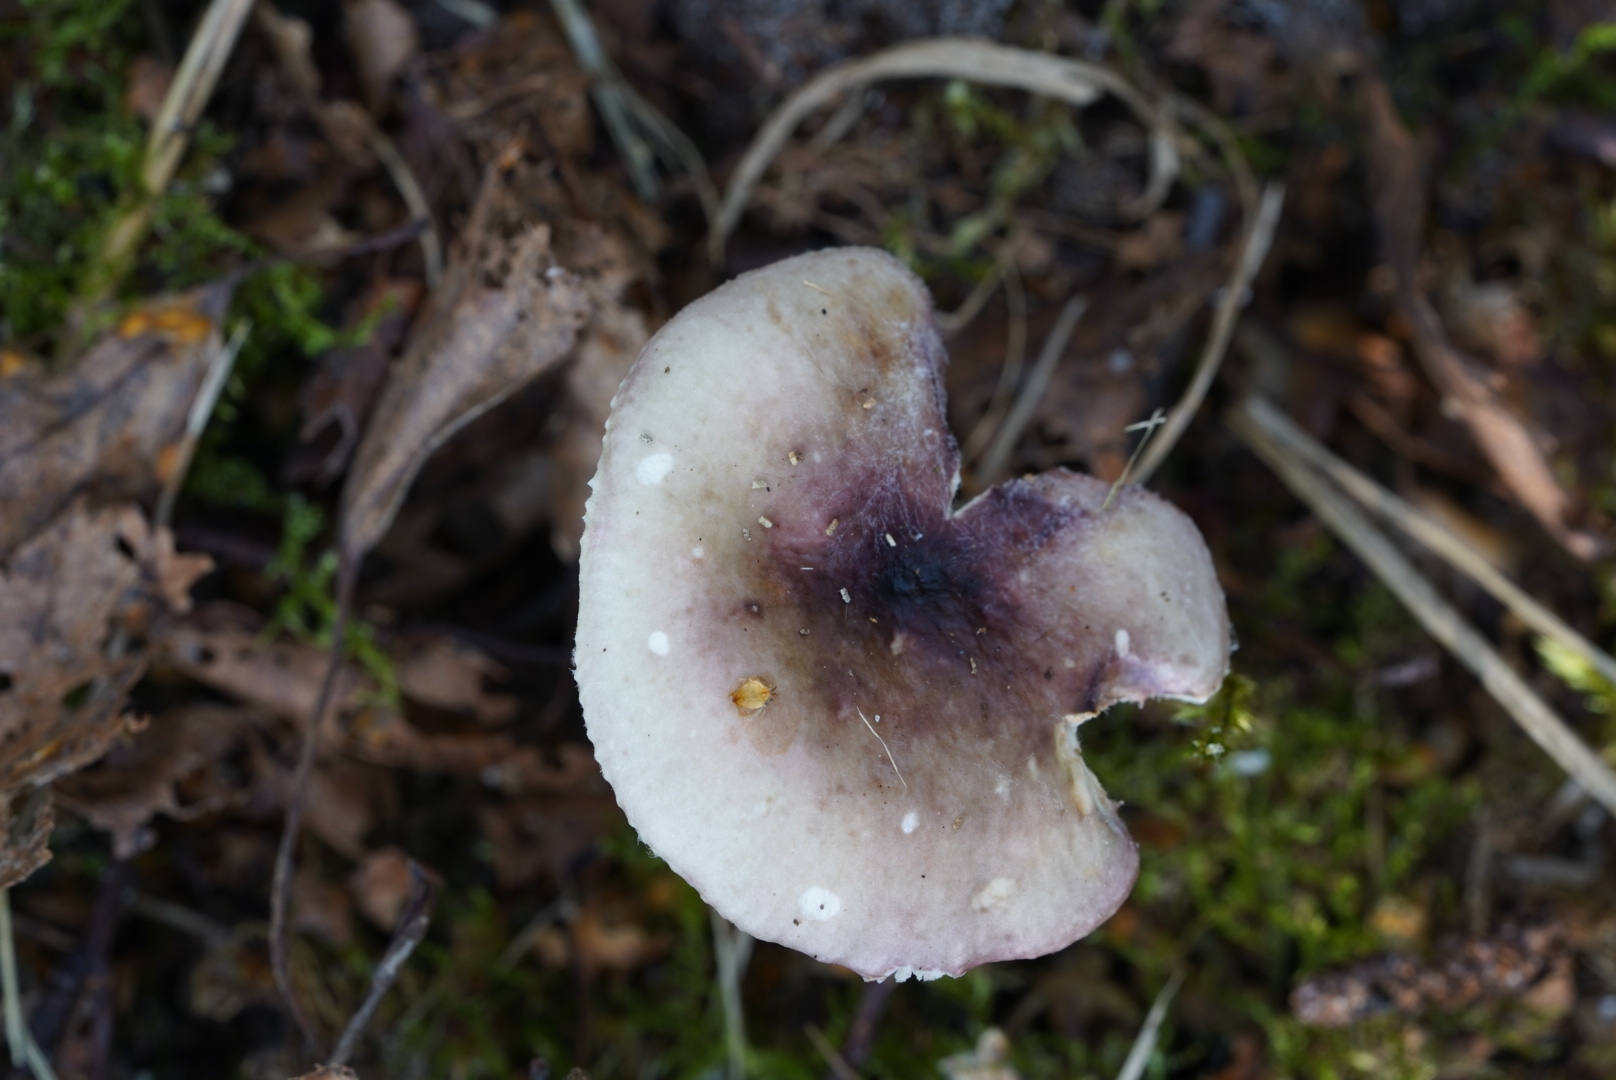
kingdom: Fungi
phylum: Basidiomycota
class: Agaricomycetes
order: Russulales
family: Russulaceae
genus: Russula
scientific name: Russula
